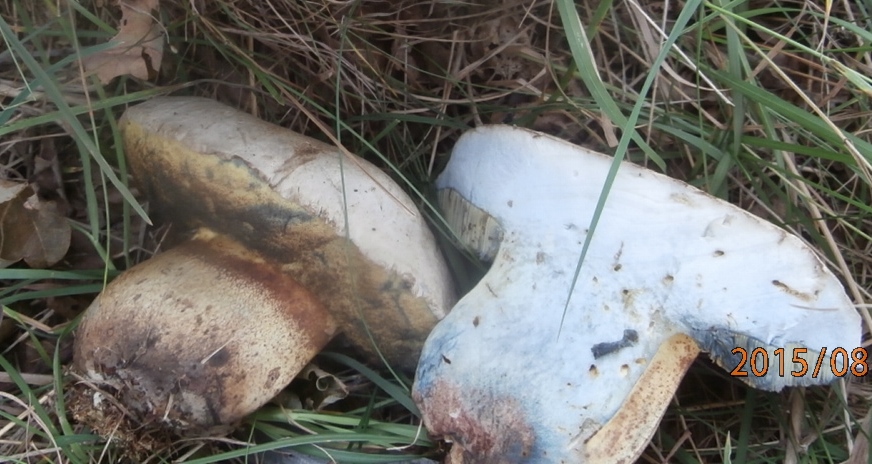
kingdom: Fungi
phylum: Basidiomycota
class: Agaricomycetes
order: Boletales
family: Boletaceae
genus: Caloboletus
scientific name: Caloboletus radicans
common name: rod-rørhat
